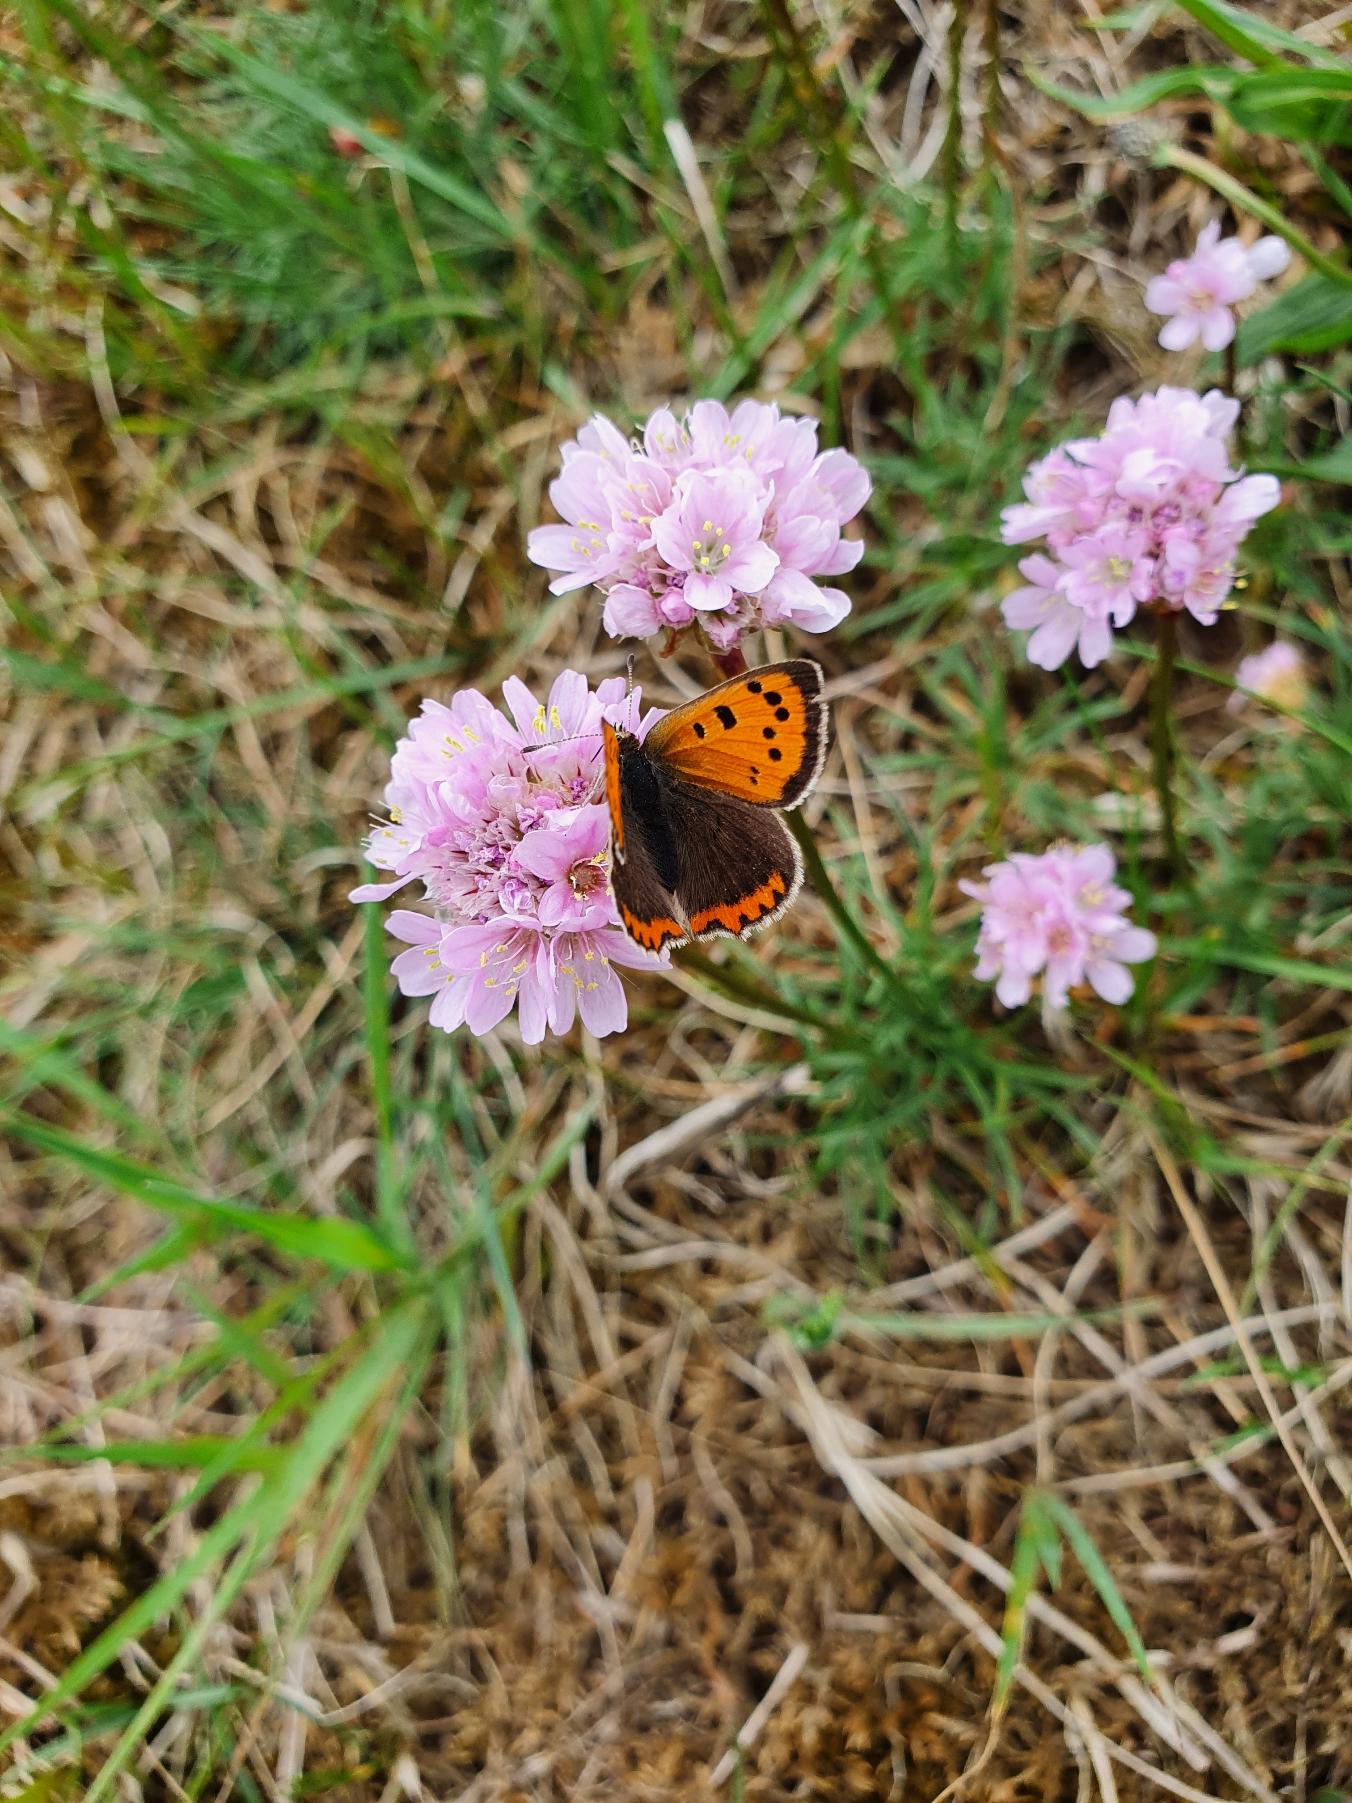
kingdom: Animalia
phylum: Arthropoda
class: Insecta
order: Lepidoptera
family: Lycaenidae
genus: Lycaena
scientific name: Lycaena phlaeas
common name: Lille ildfugl
